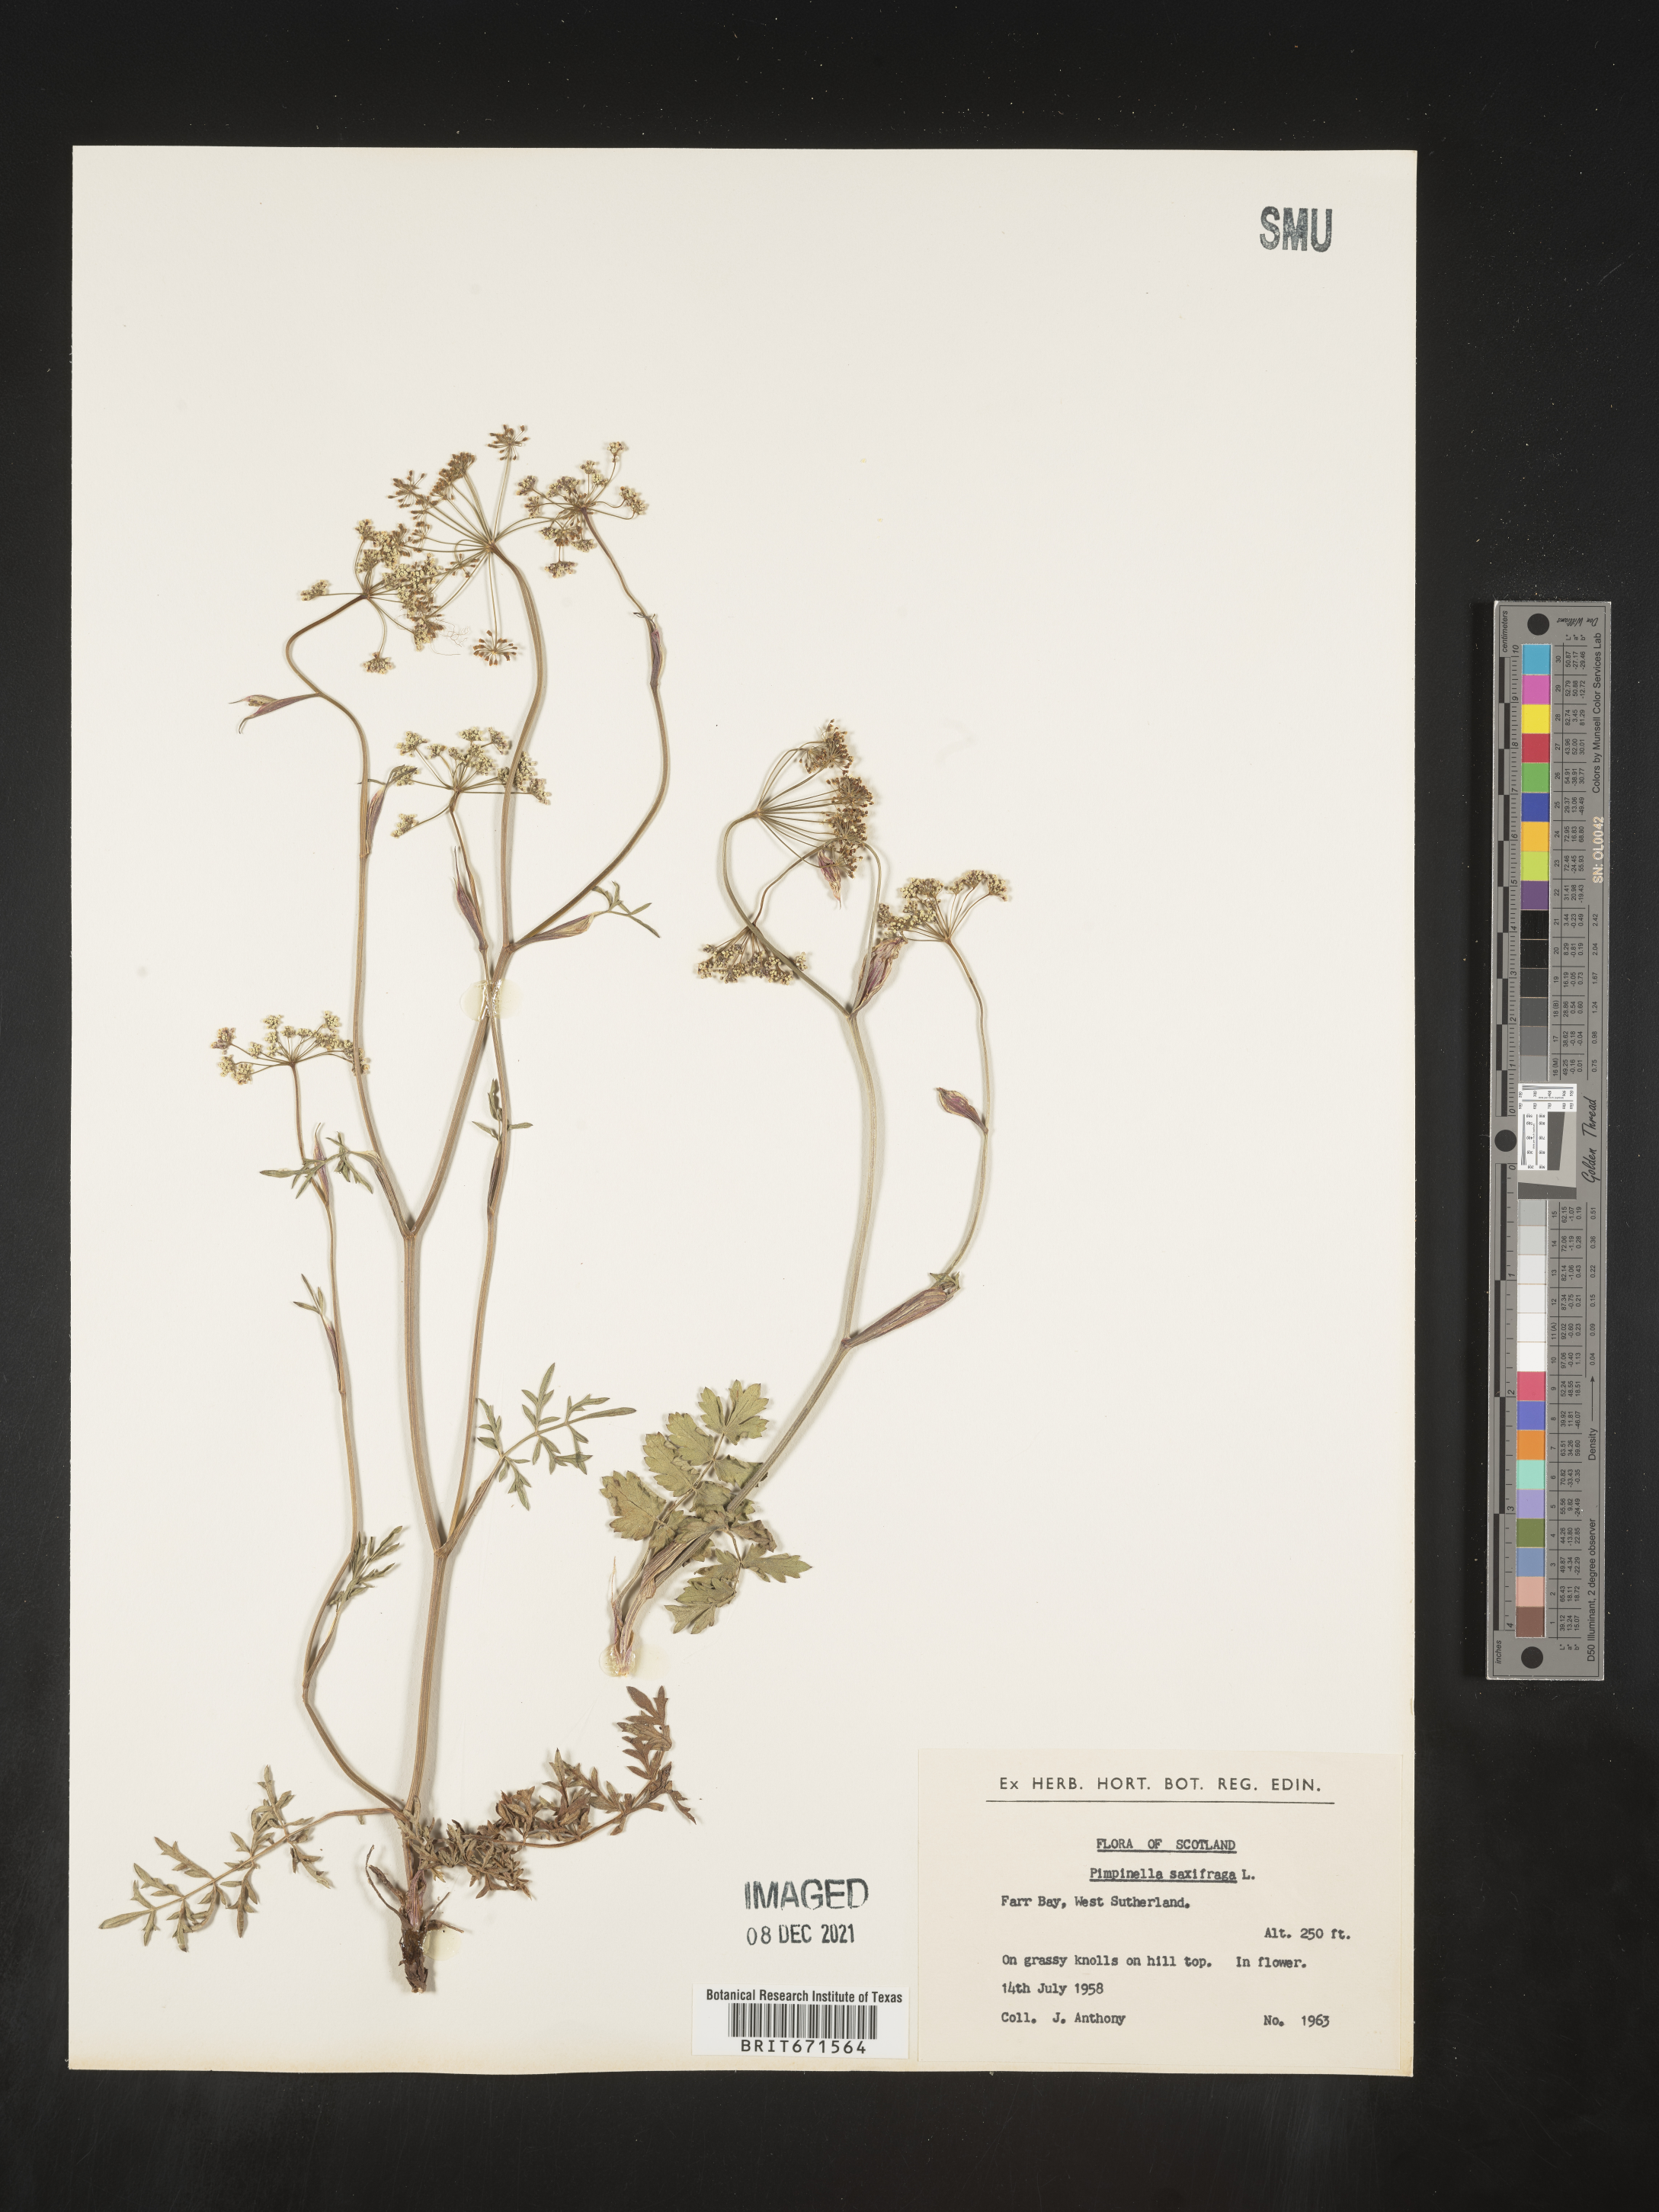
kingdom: Plantae
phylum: Tracheophyta
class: Magnoliopsida
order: Apiales
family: Apiaceae
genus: Pimpinella
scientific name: Pimpinella
